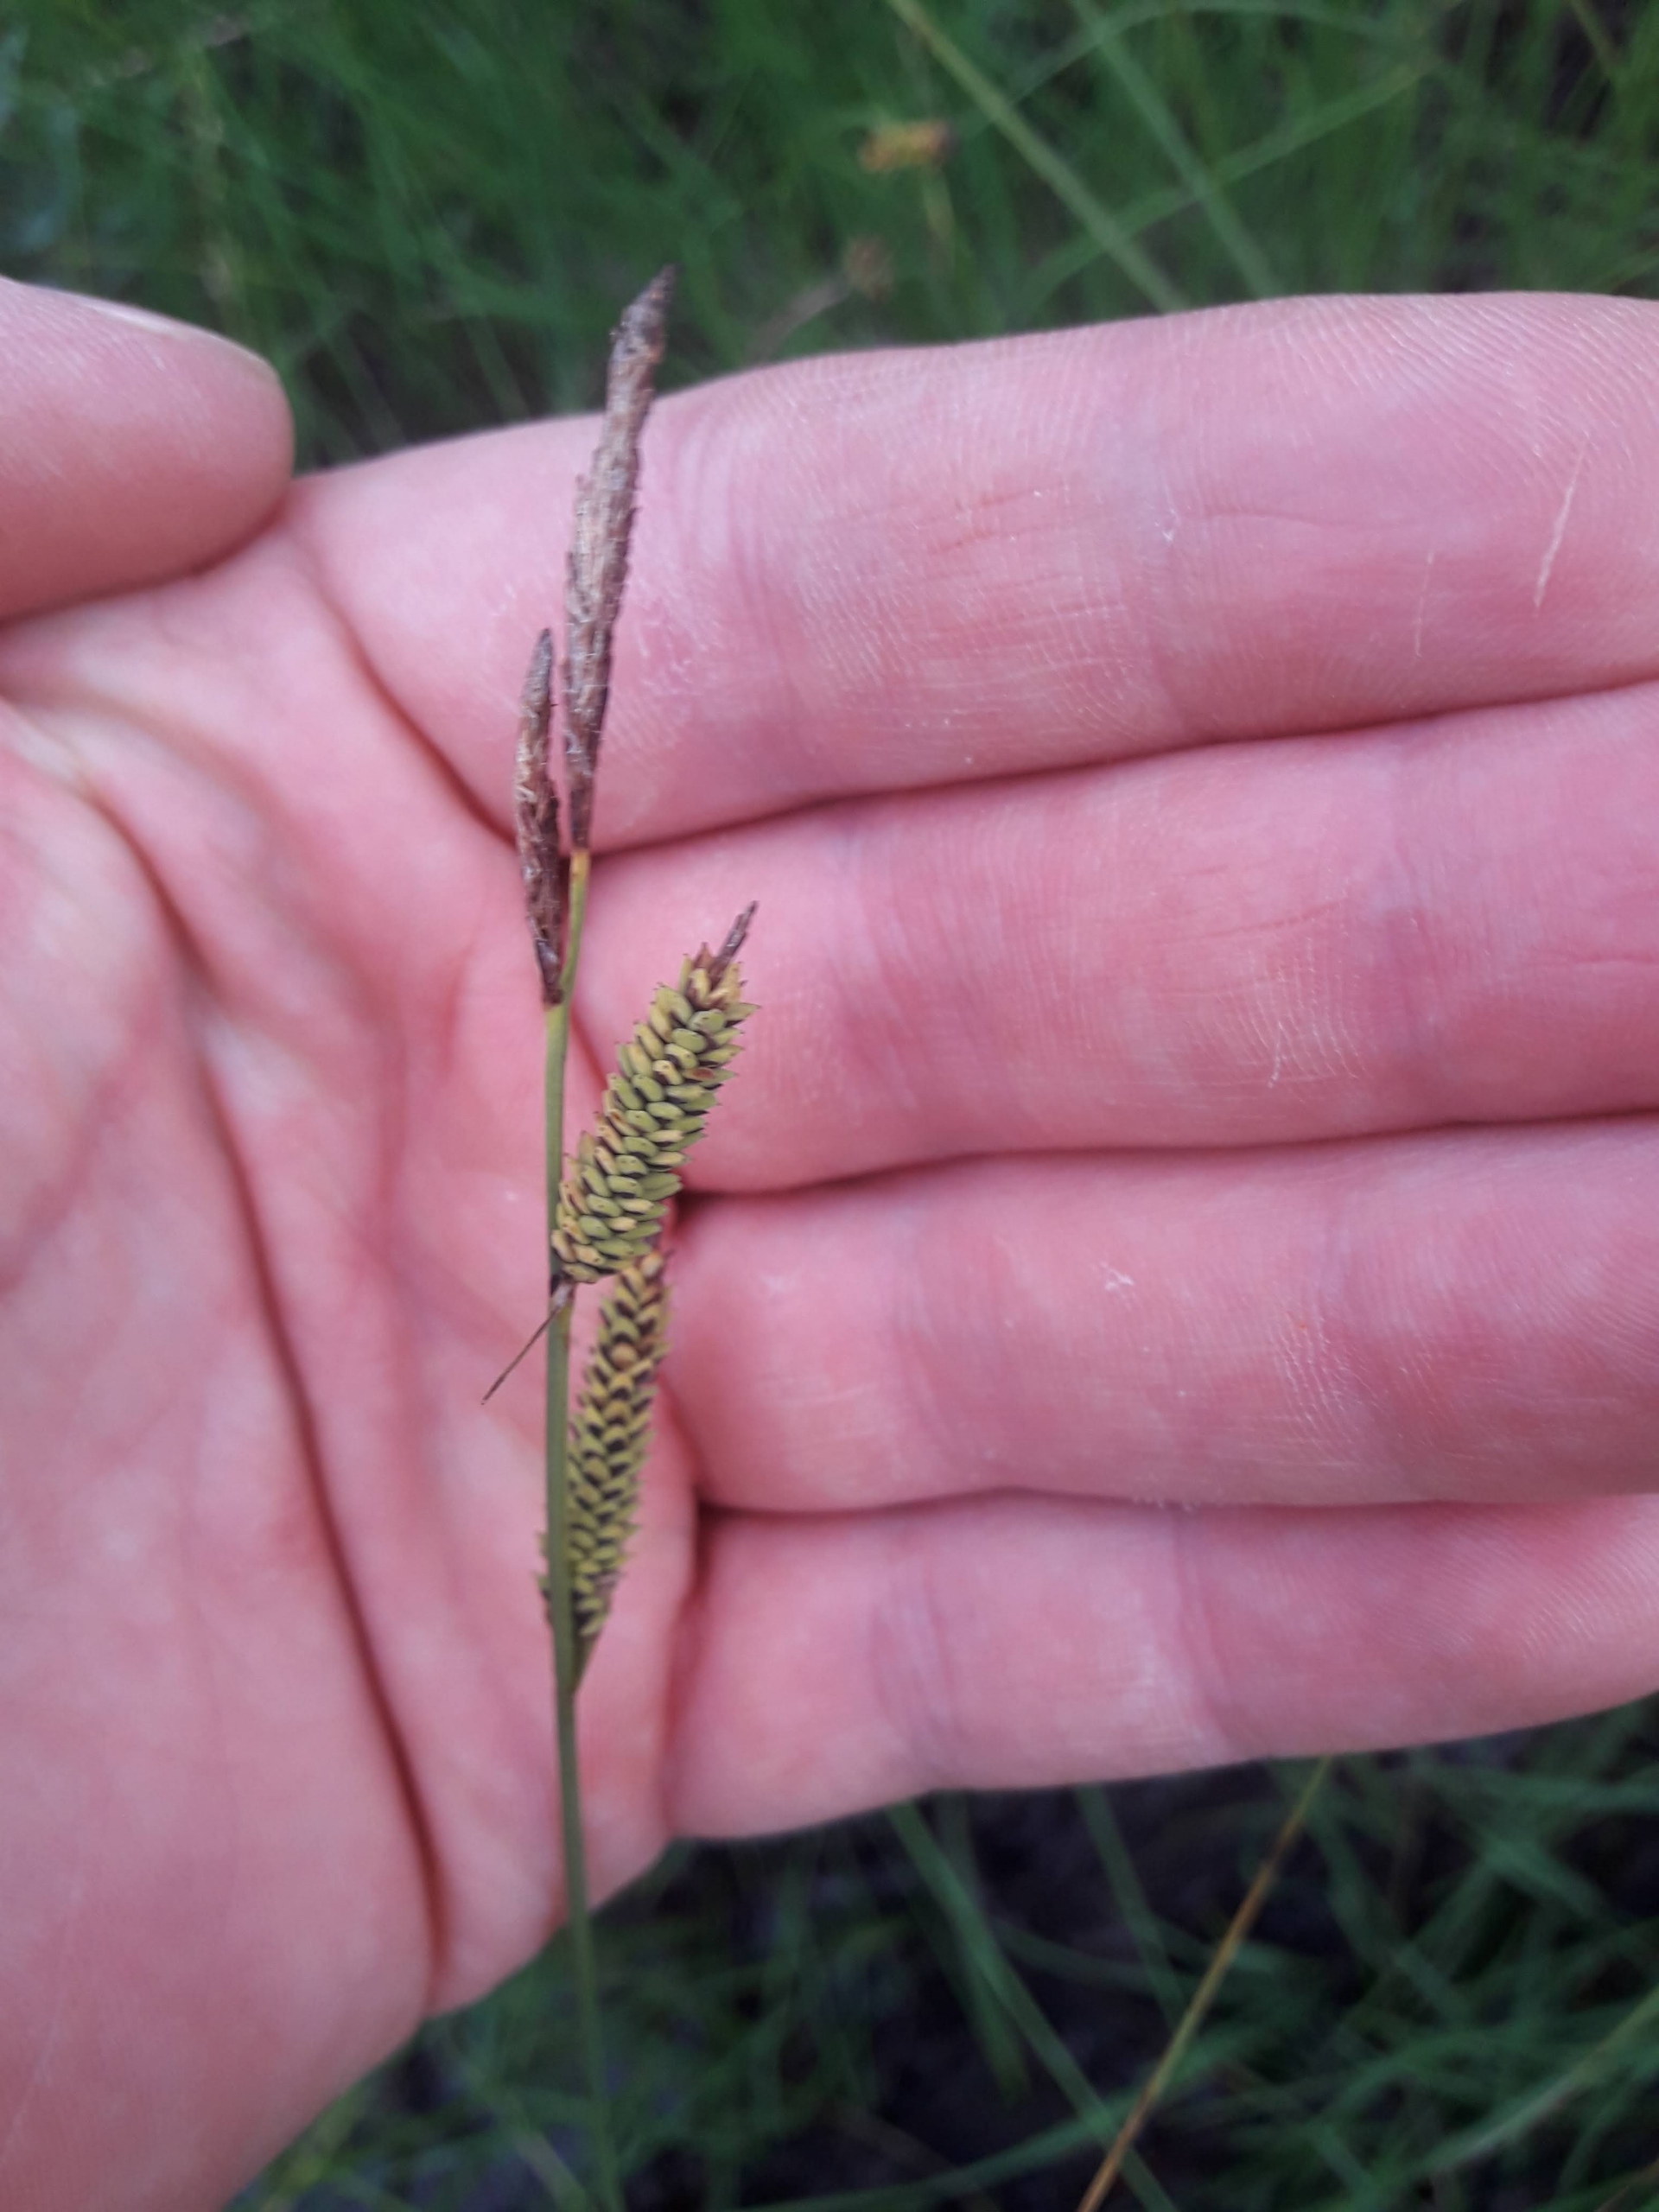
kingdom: Plantae
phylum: Tracheophyta
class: Liliopsida
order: Poales
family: Cyperaceae
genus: Carex
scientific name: Carex nigra
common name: Almindelig star
